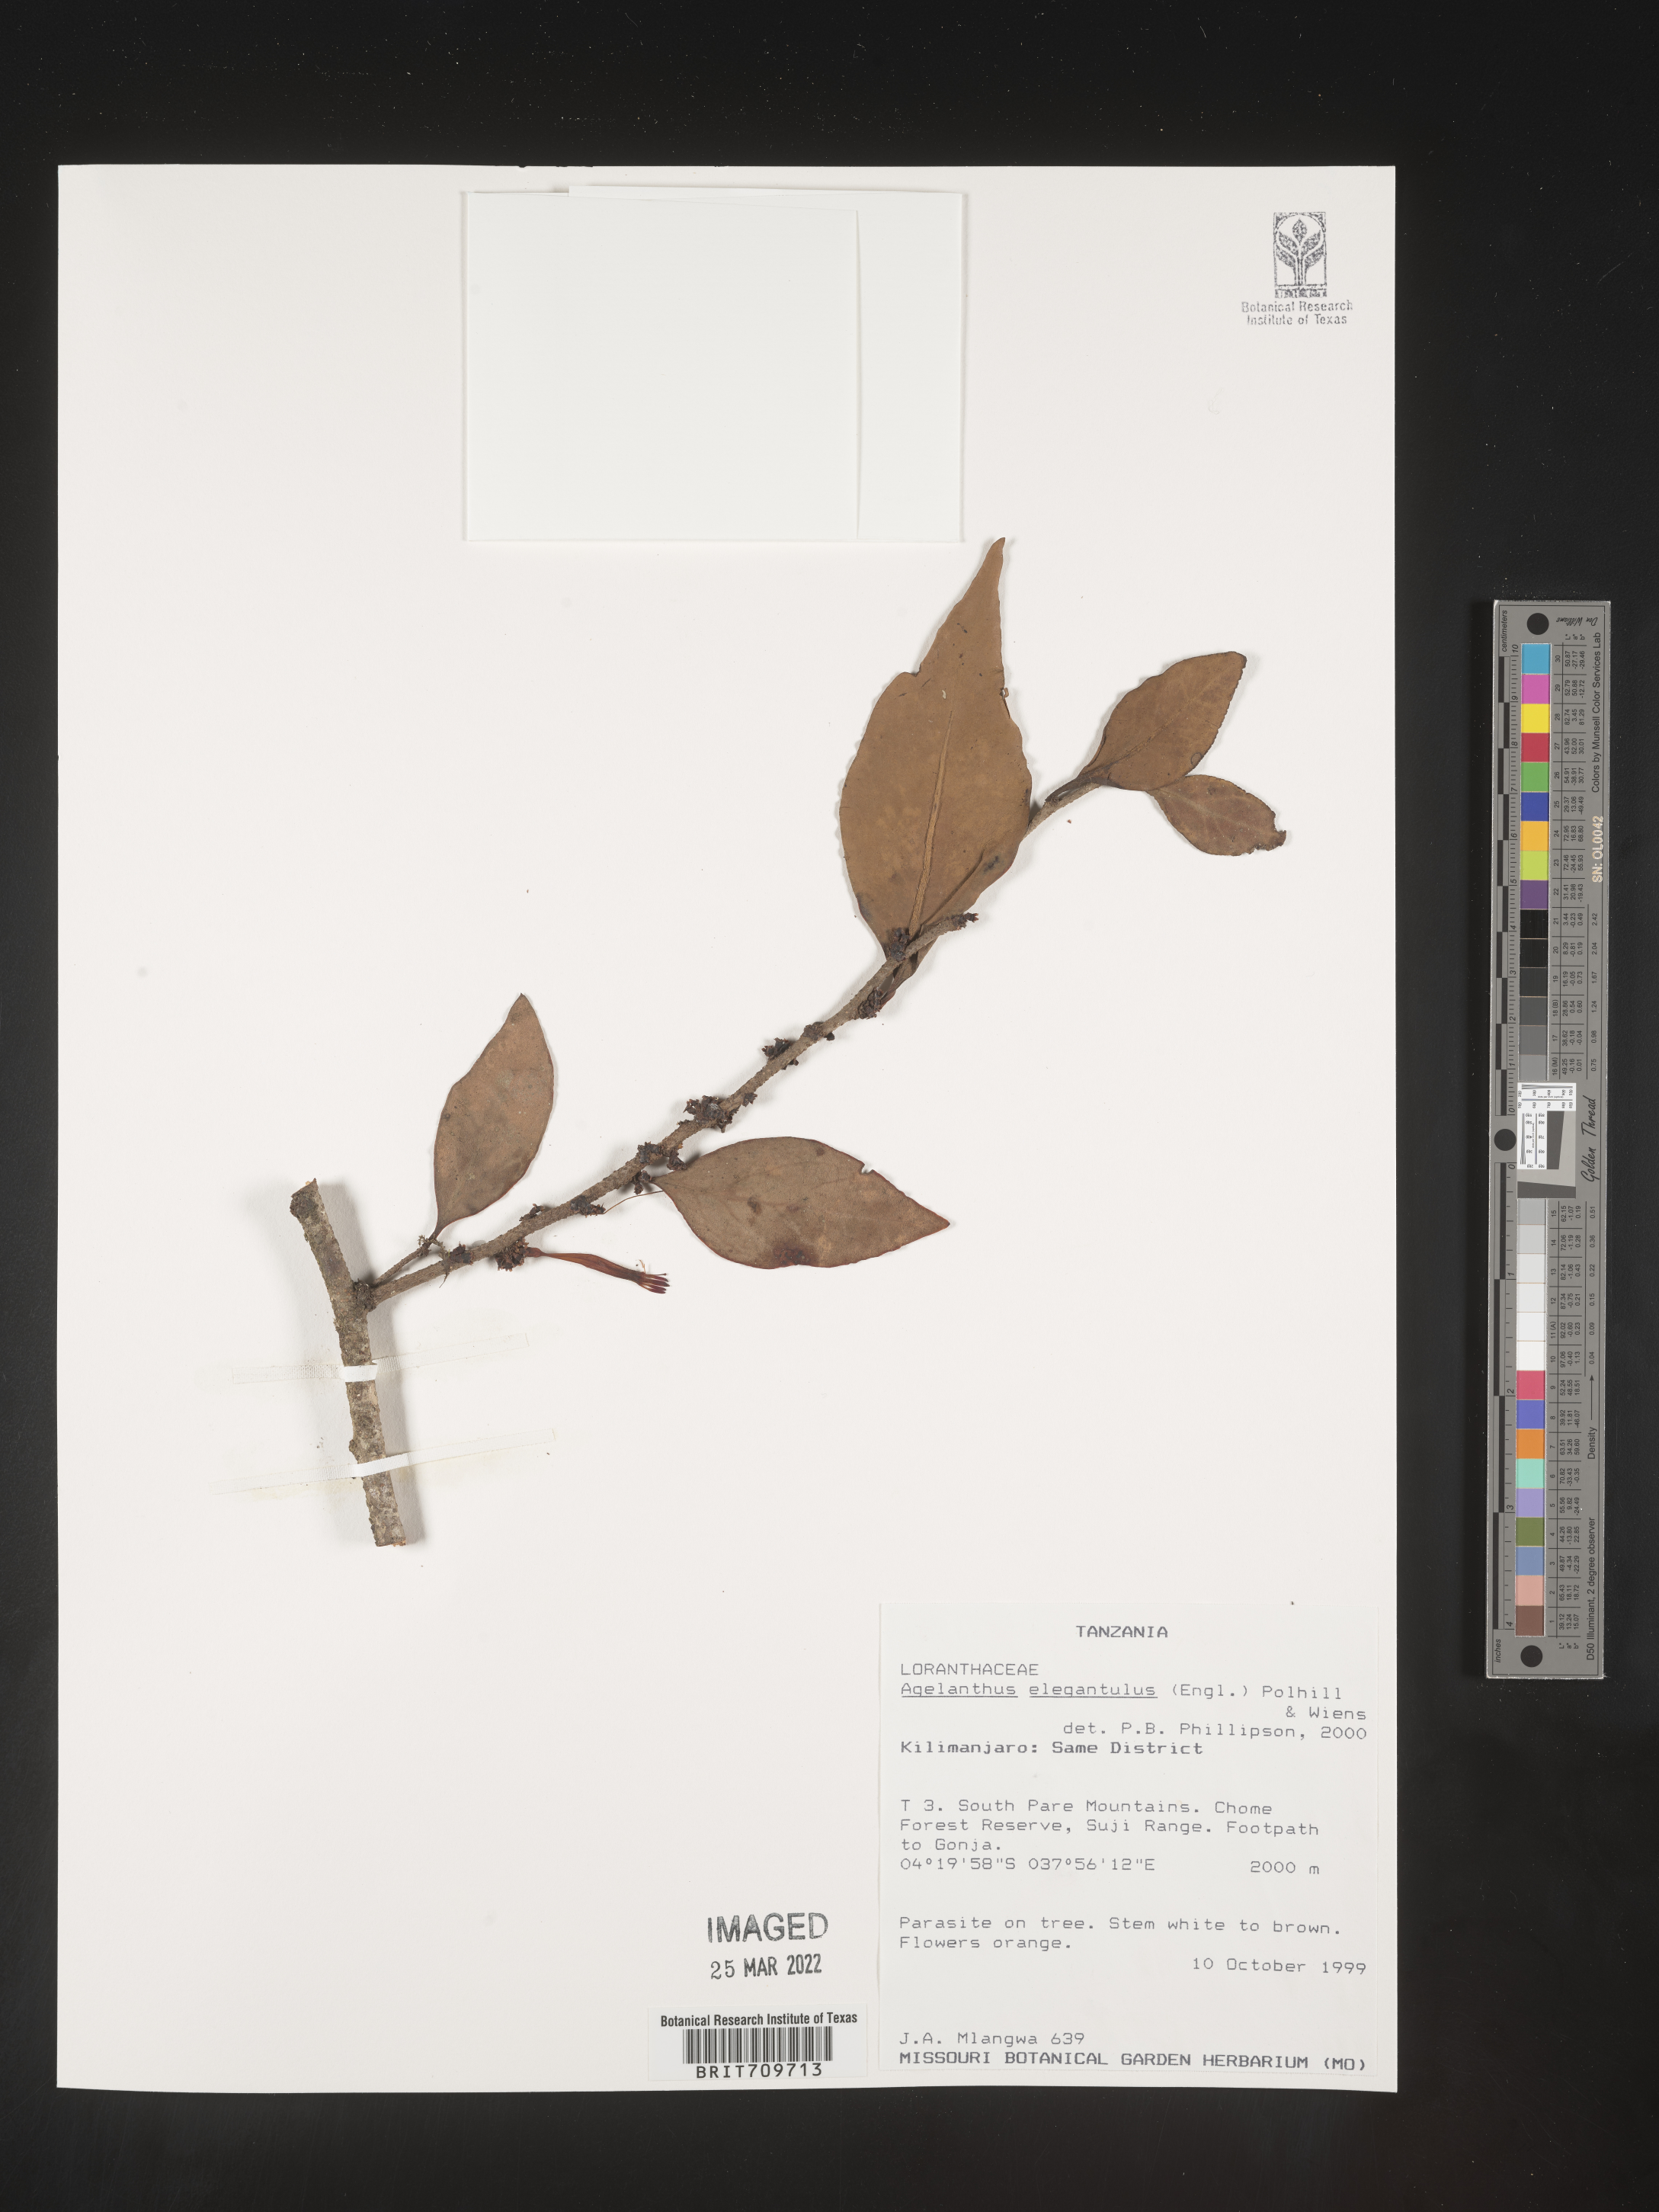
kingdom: Plantae
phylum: Tracheophyta
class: Magnoliopsida
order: Santalales
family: Loranthaceae
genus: Agelanthus
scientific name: Agelanthus
